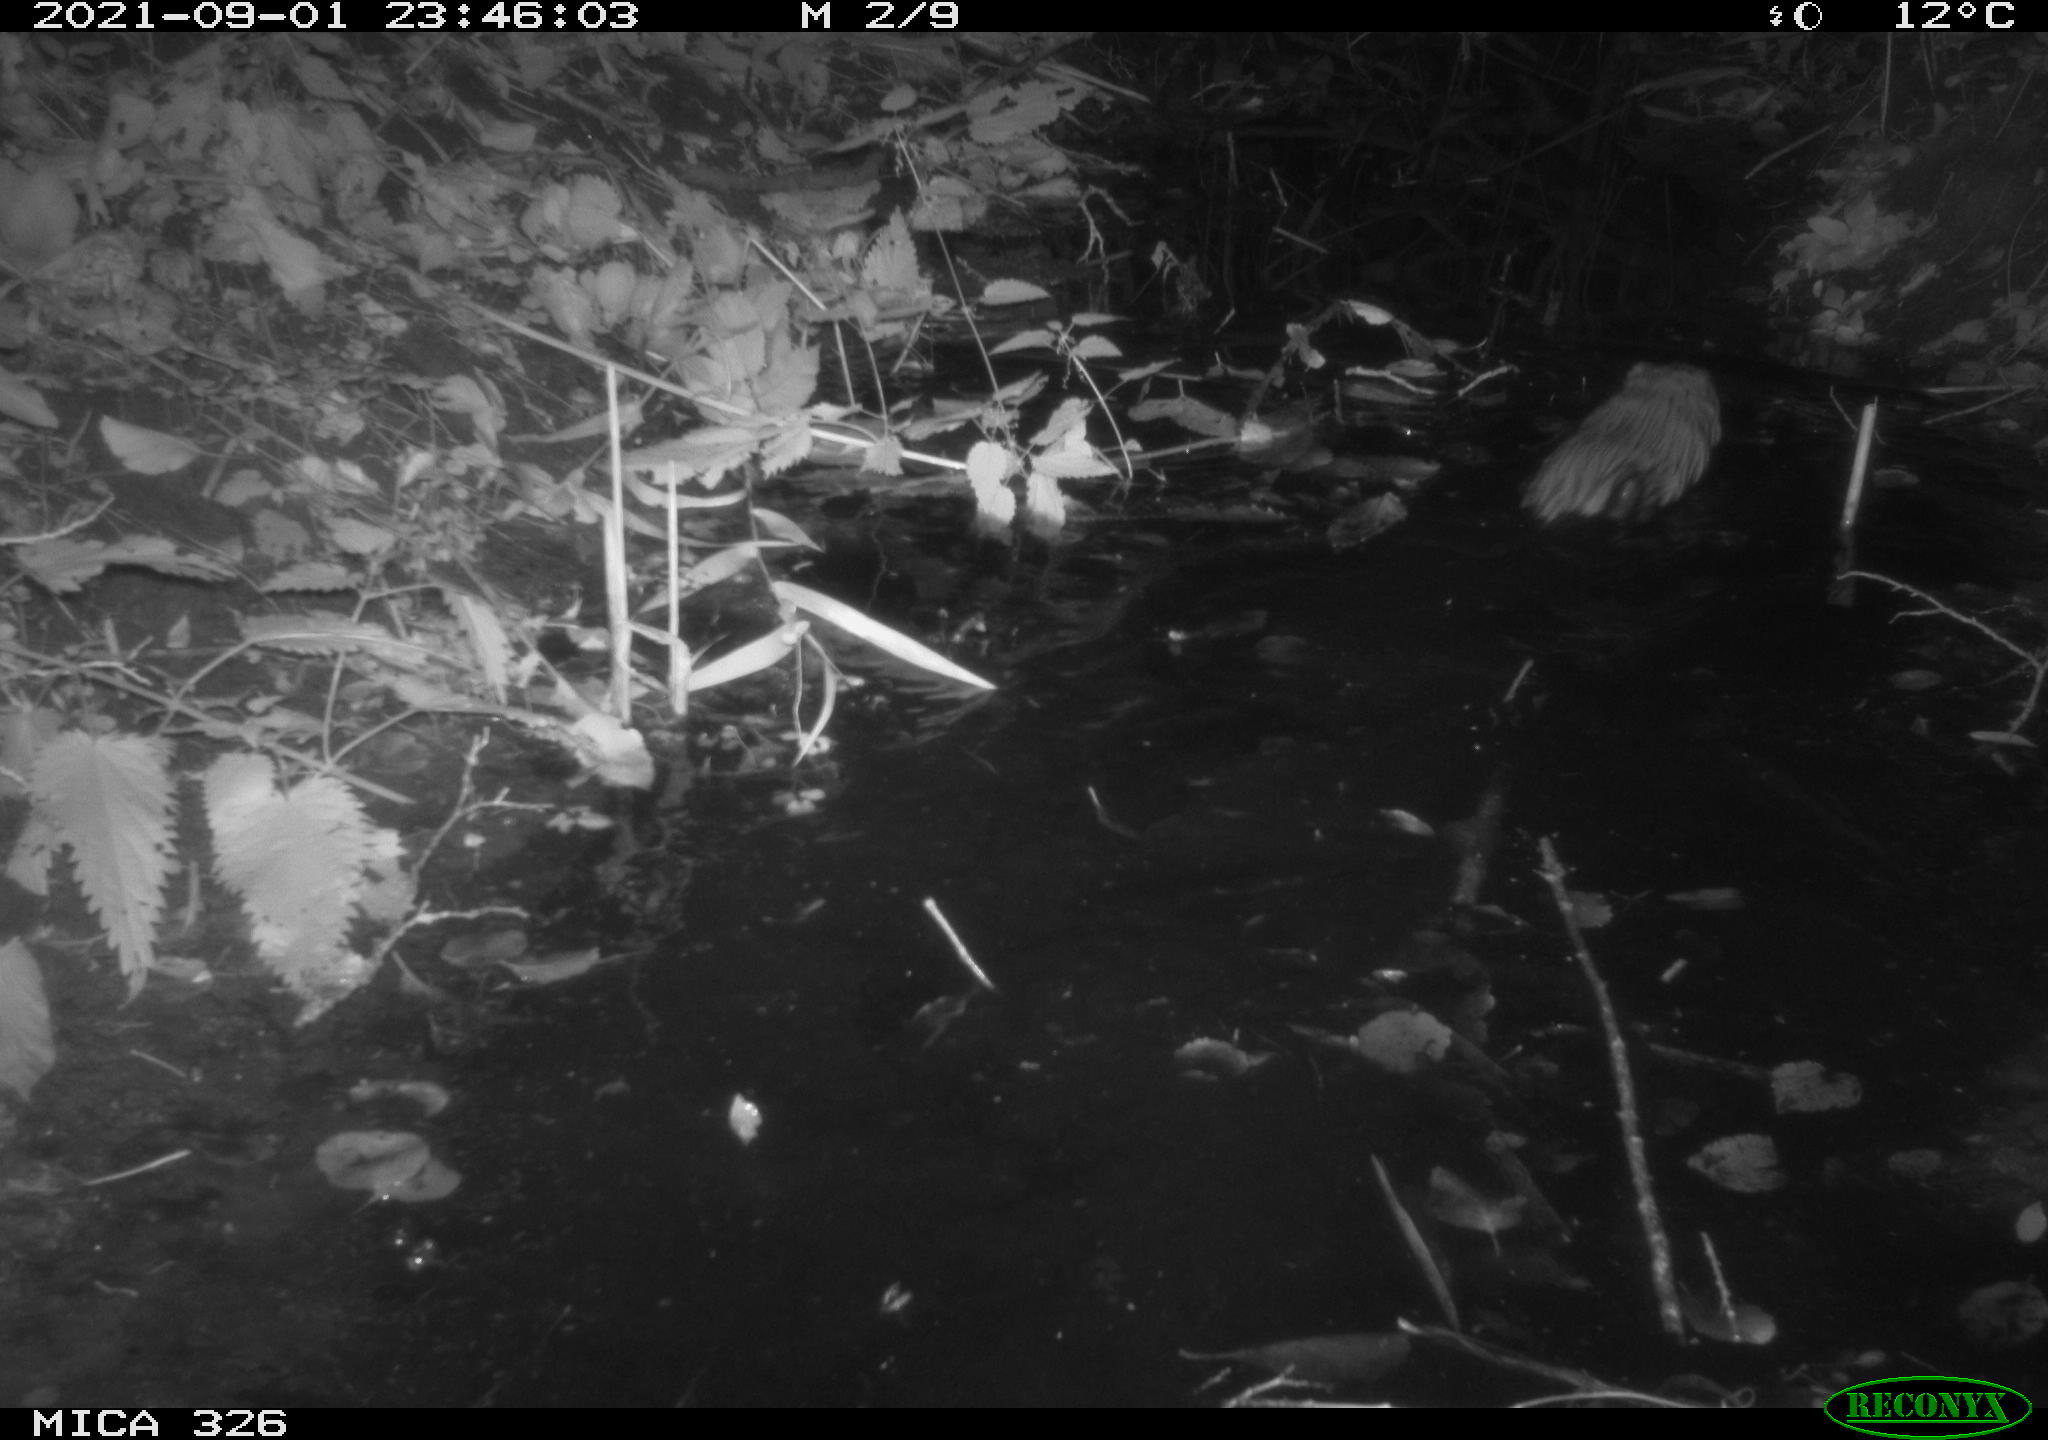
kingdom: Animalia
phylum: Chordata
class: Mammalia
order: Rodentia
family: Cricetidae
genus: Ondatra
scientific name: Ondatra zibethicus
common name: Muskrat
